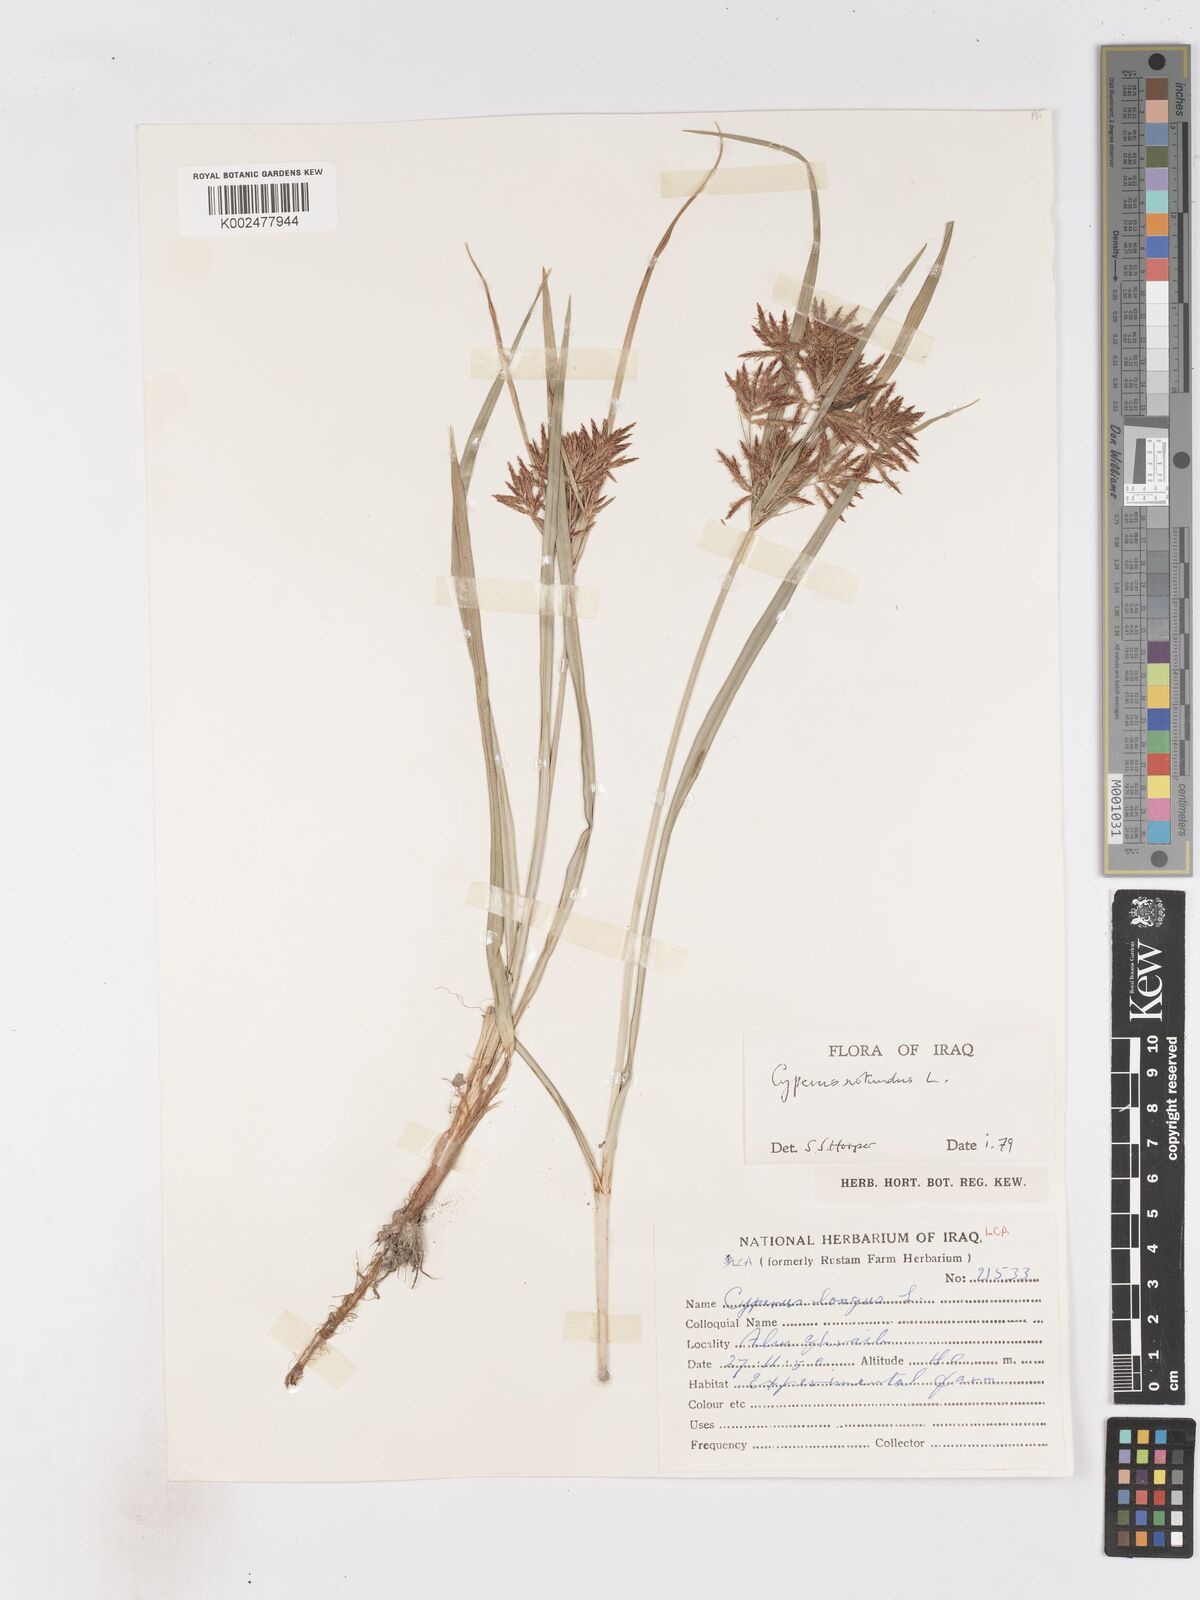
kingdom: Plantae
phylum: Tracheophyta
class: Liliopsida
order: Poales
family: Cyperaceae
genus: Cyperus
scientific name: Cyperus rotundus
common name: Nutgrass
